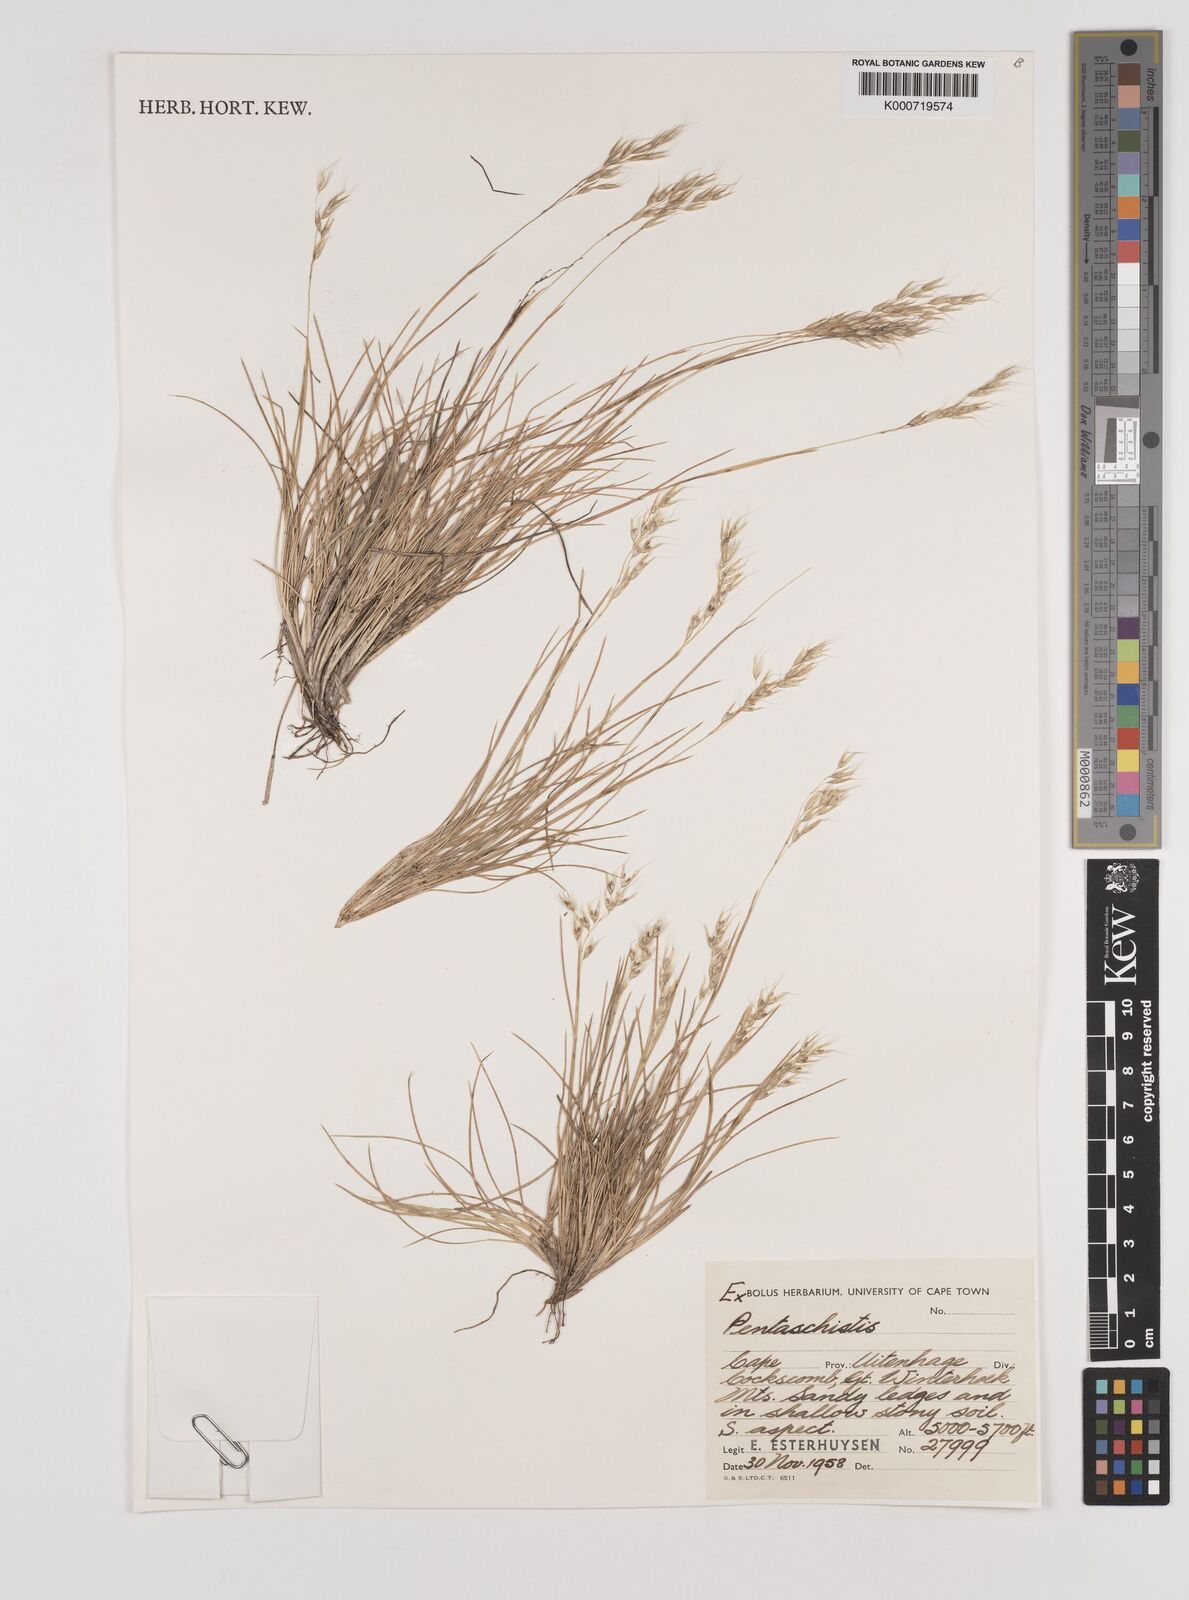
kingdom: Plantae
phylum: Tracheophyta
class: Liliopsida
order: Poales
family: Poaceae
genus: Pentameris
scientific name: Pentameris rigidissima
